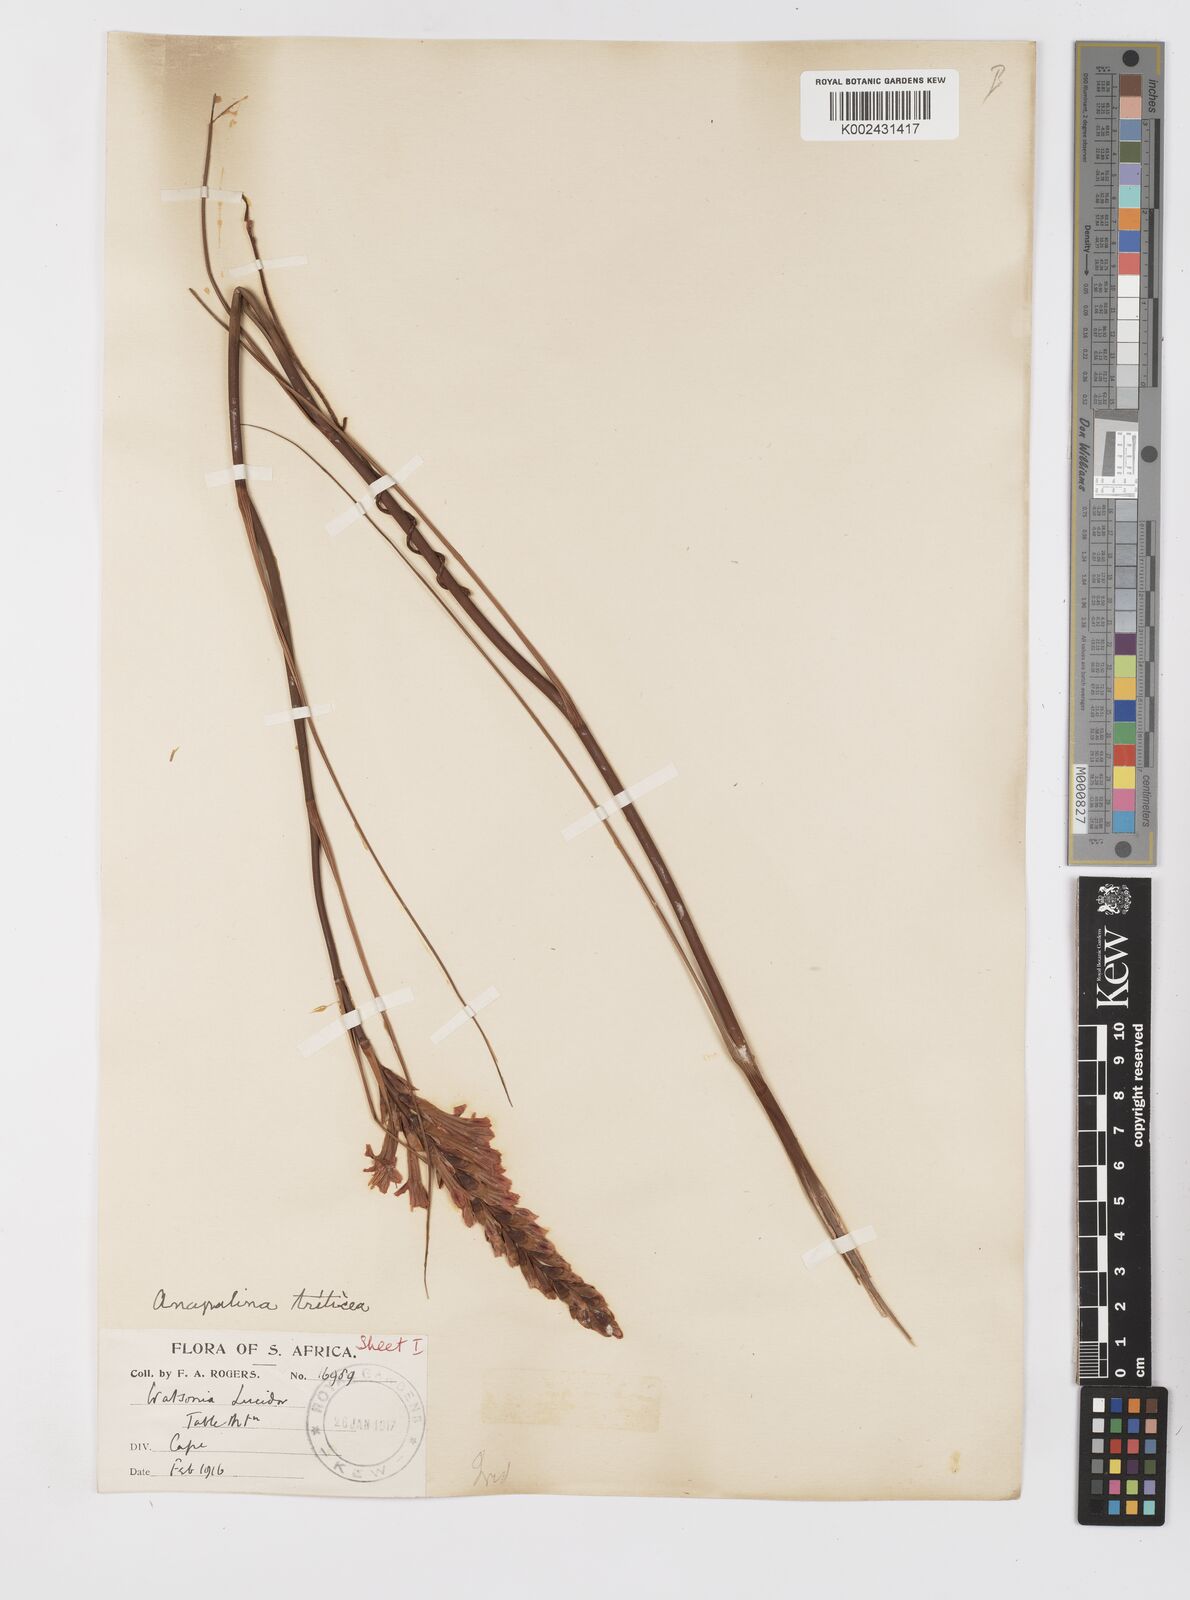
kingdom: Plantae
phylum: Tracheophyta
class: Liliopsida
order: Asparagales
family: Iridaceae
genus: Tritoniopsis
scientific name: Tritoniopsis triticea
